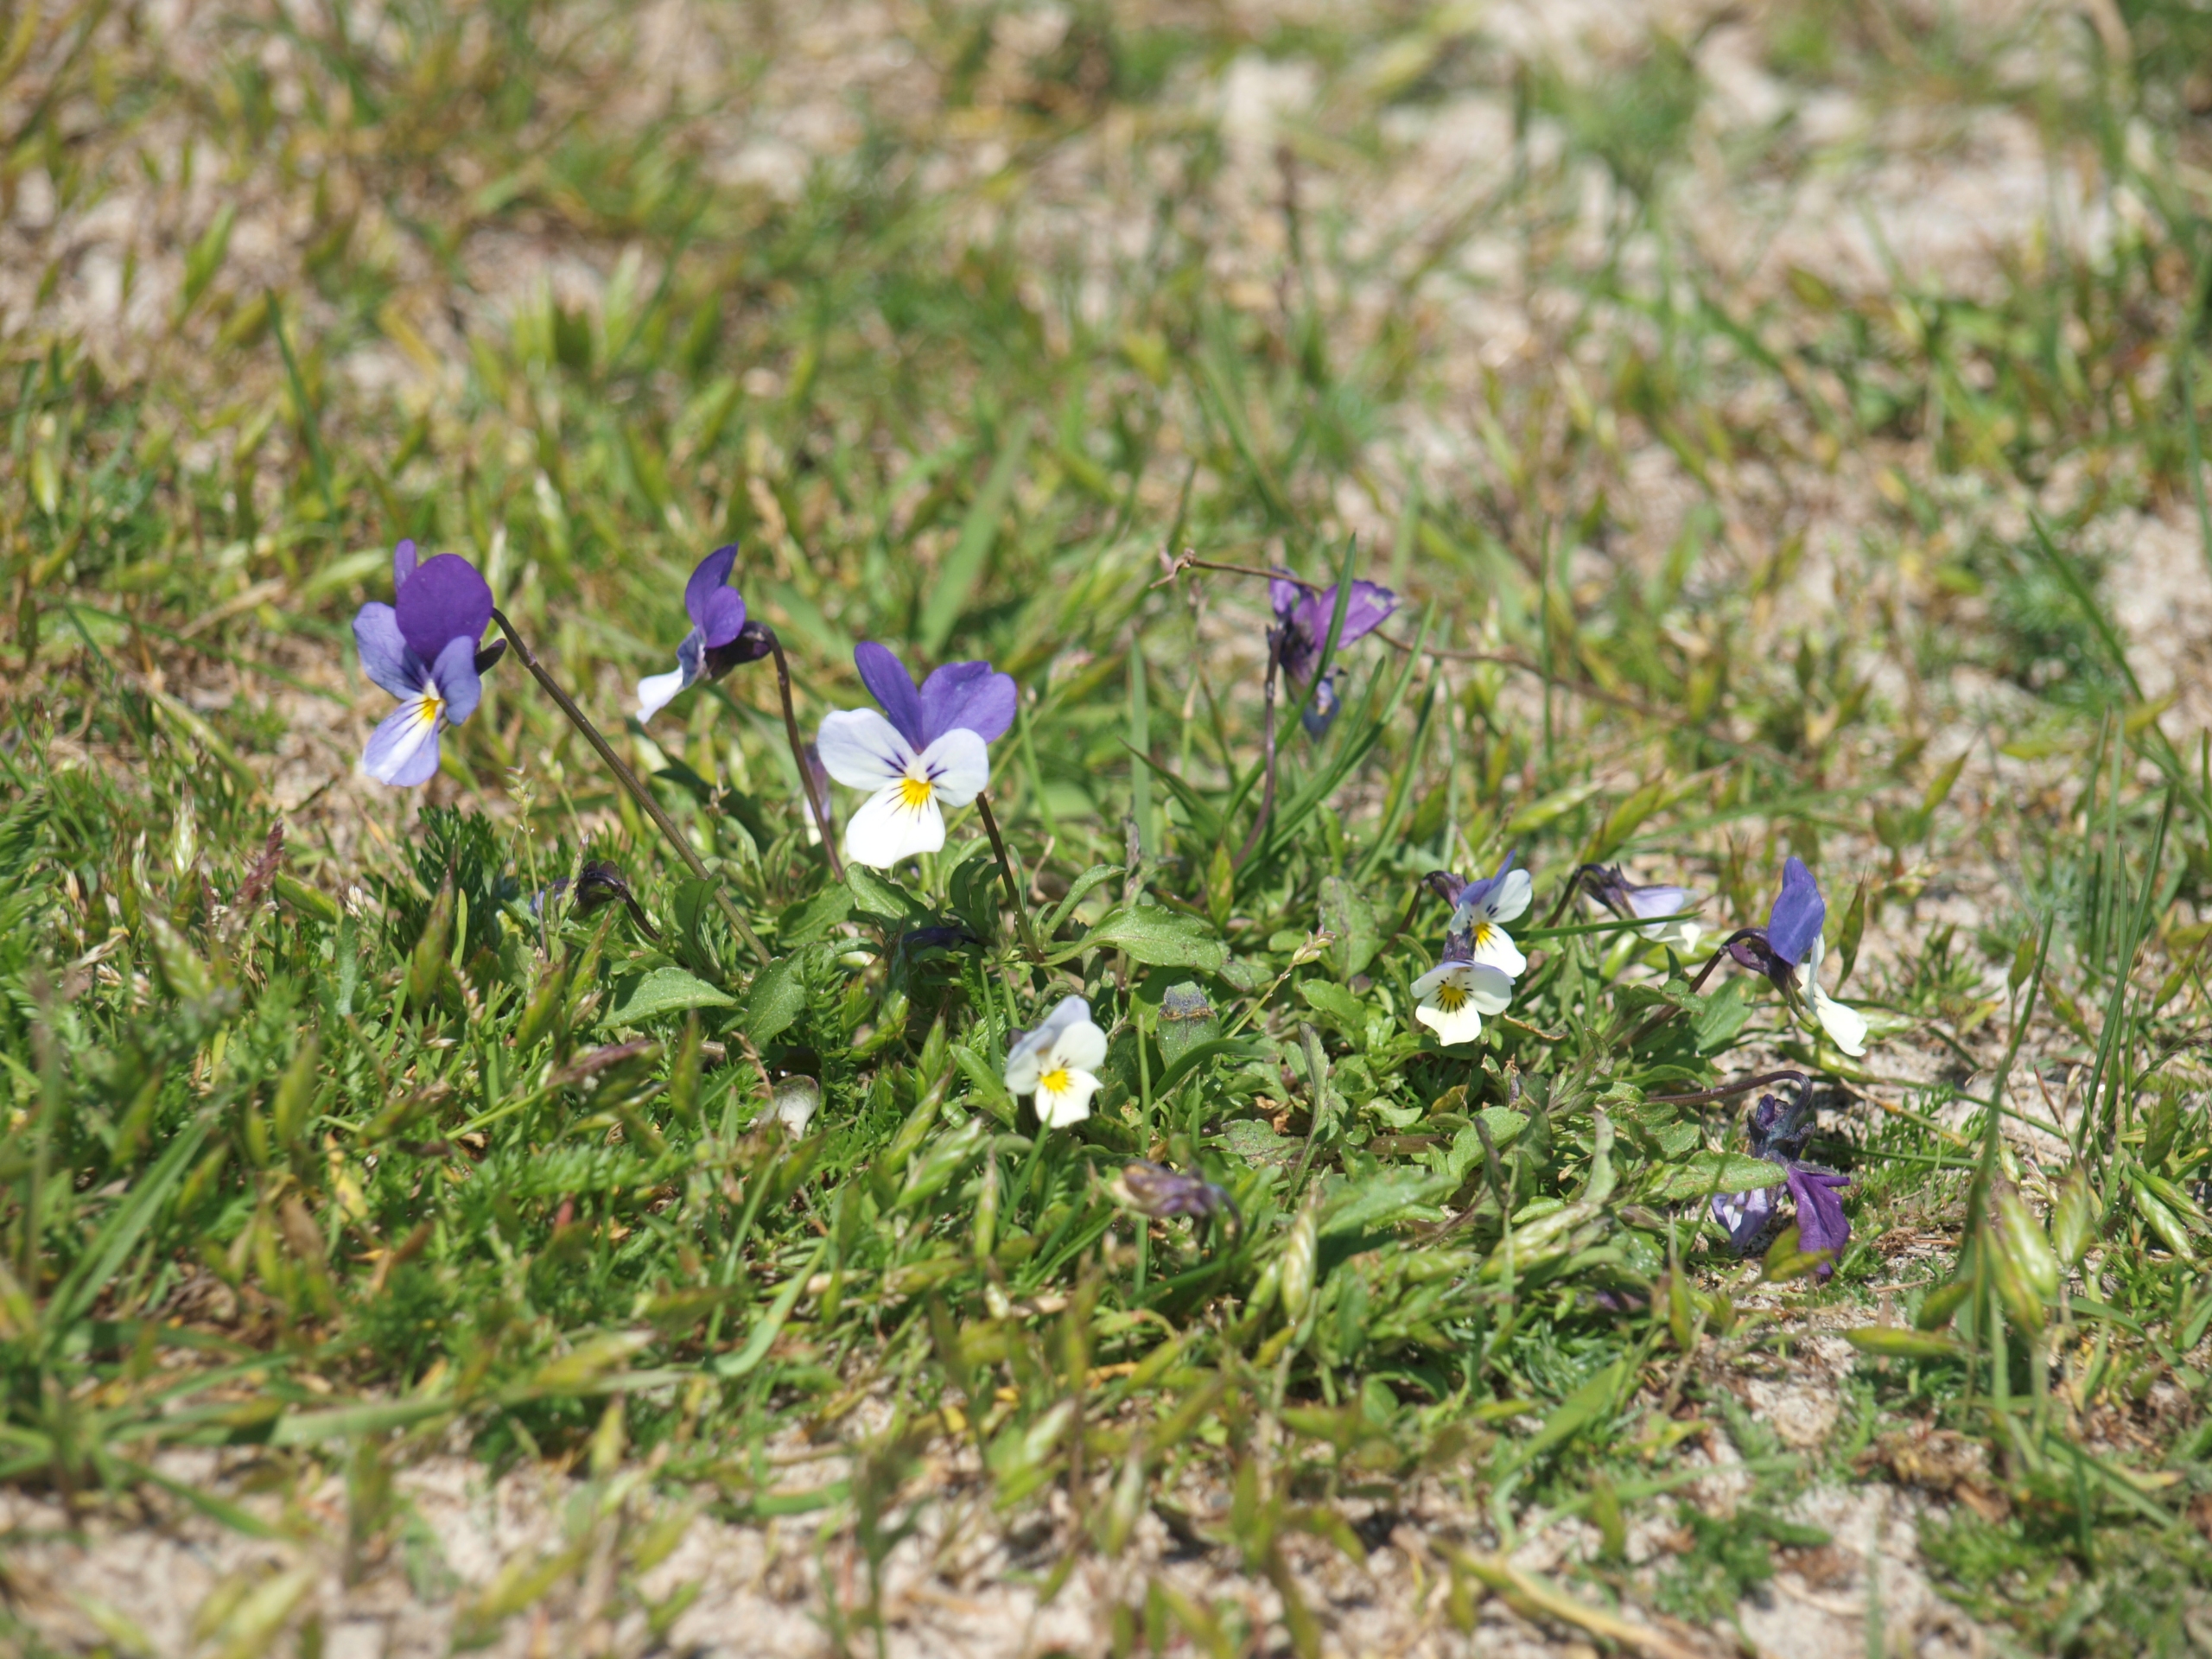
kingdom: Plantae
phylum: Tracheophyta
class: Magnoliopsida
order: Malpighiales
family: Violaceae
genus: Viola
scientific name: Viola tricolor
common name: Stedmoderblomst
